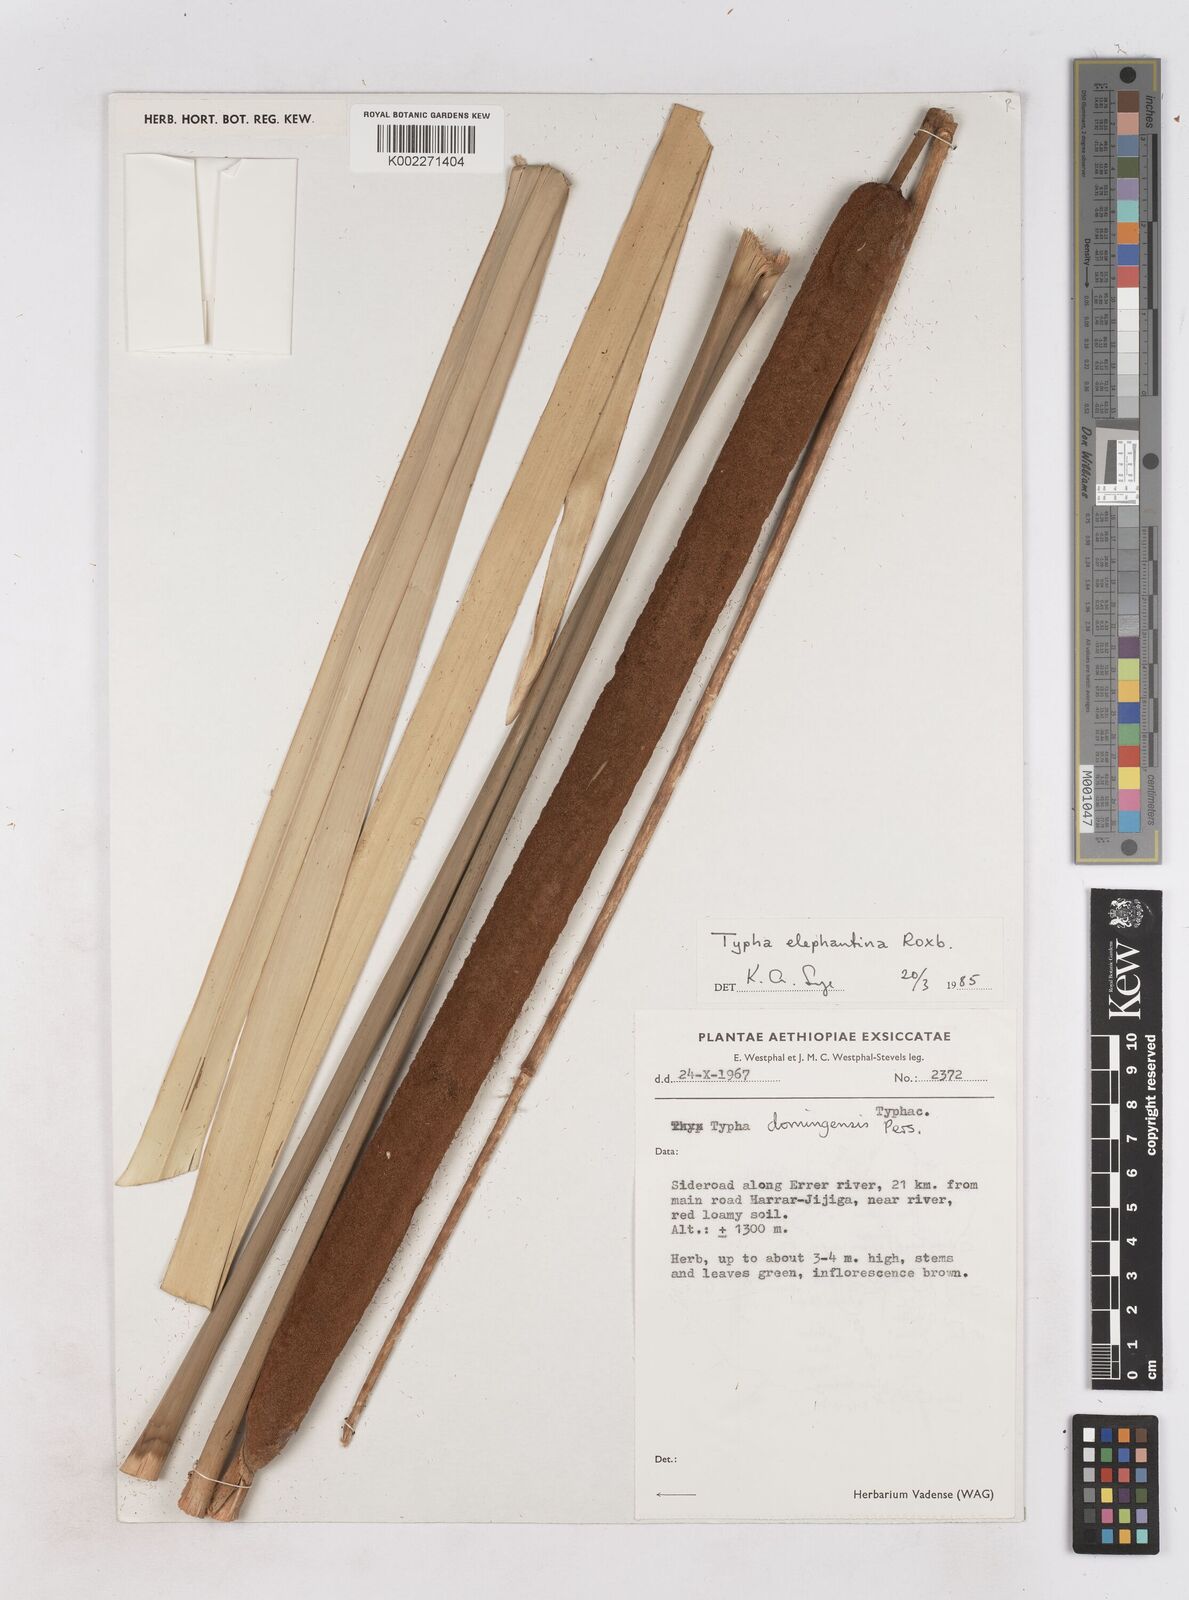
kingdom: Plantae
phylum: Tracheophyta
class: Liliopsida
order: Poales
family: Typhaceae
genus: Typha
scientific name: Typha elephantina
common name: Indian reed-grass
